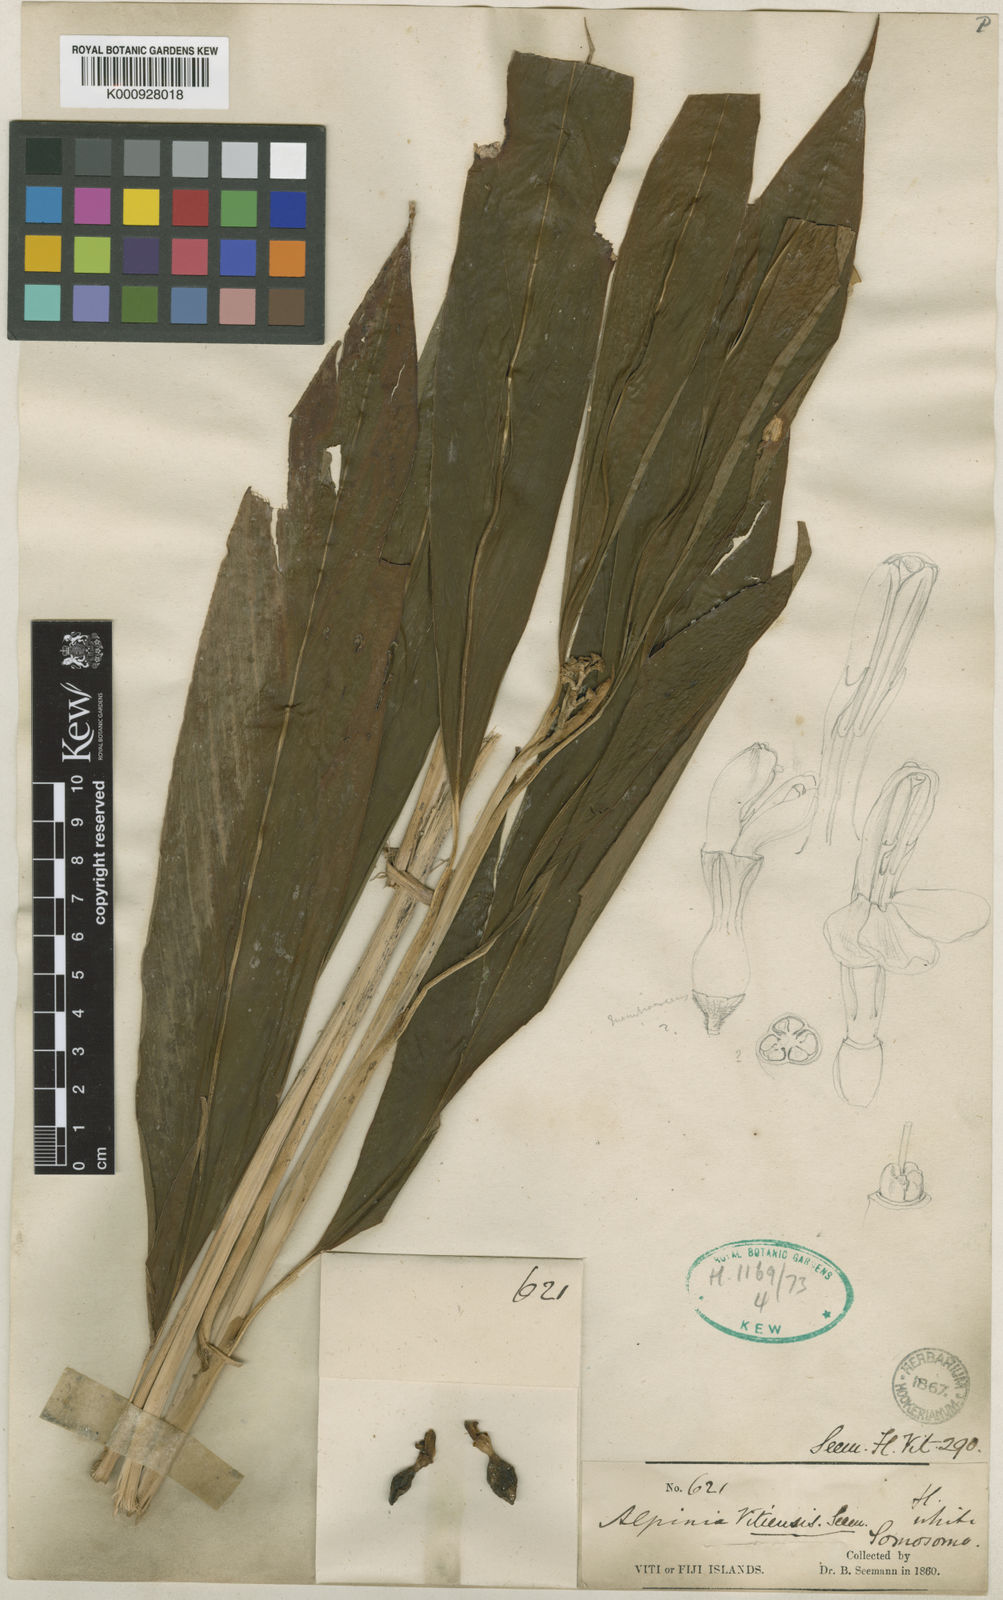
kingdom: Plantae
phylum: Tracheophyta
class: Liliopsida
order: Zingiberales
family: Zingiberaceae
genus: Alpinia
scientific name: Alpinia vitiensis
